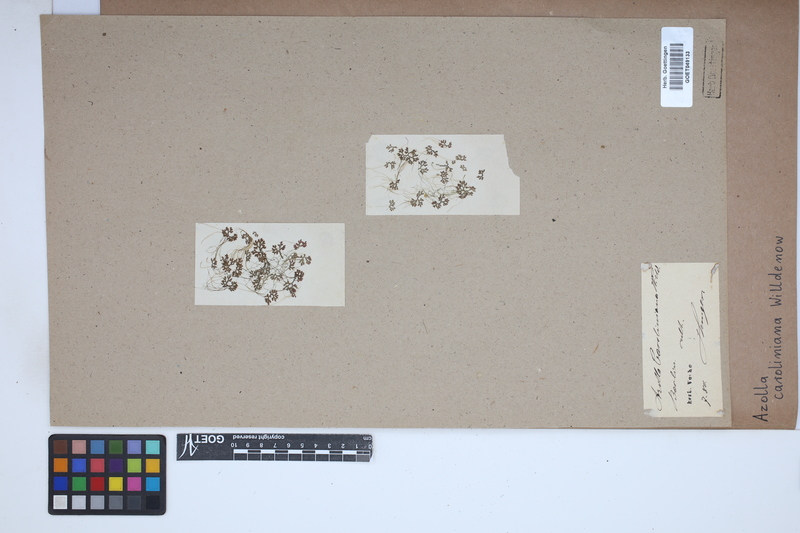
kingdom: Plantae
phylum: Tracheophyta
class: Polypodiopsida
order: Salviniales
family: Salviniaceae
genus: Azolla
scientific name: Azolla caroliniana
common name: Carolina mosquitofern
